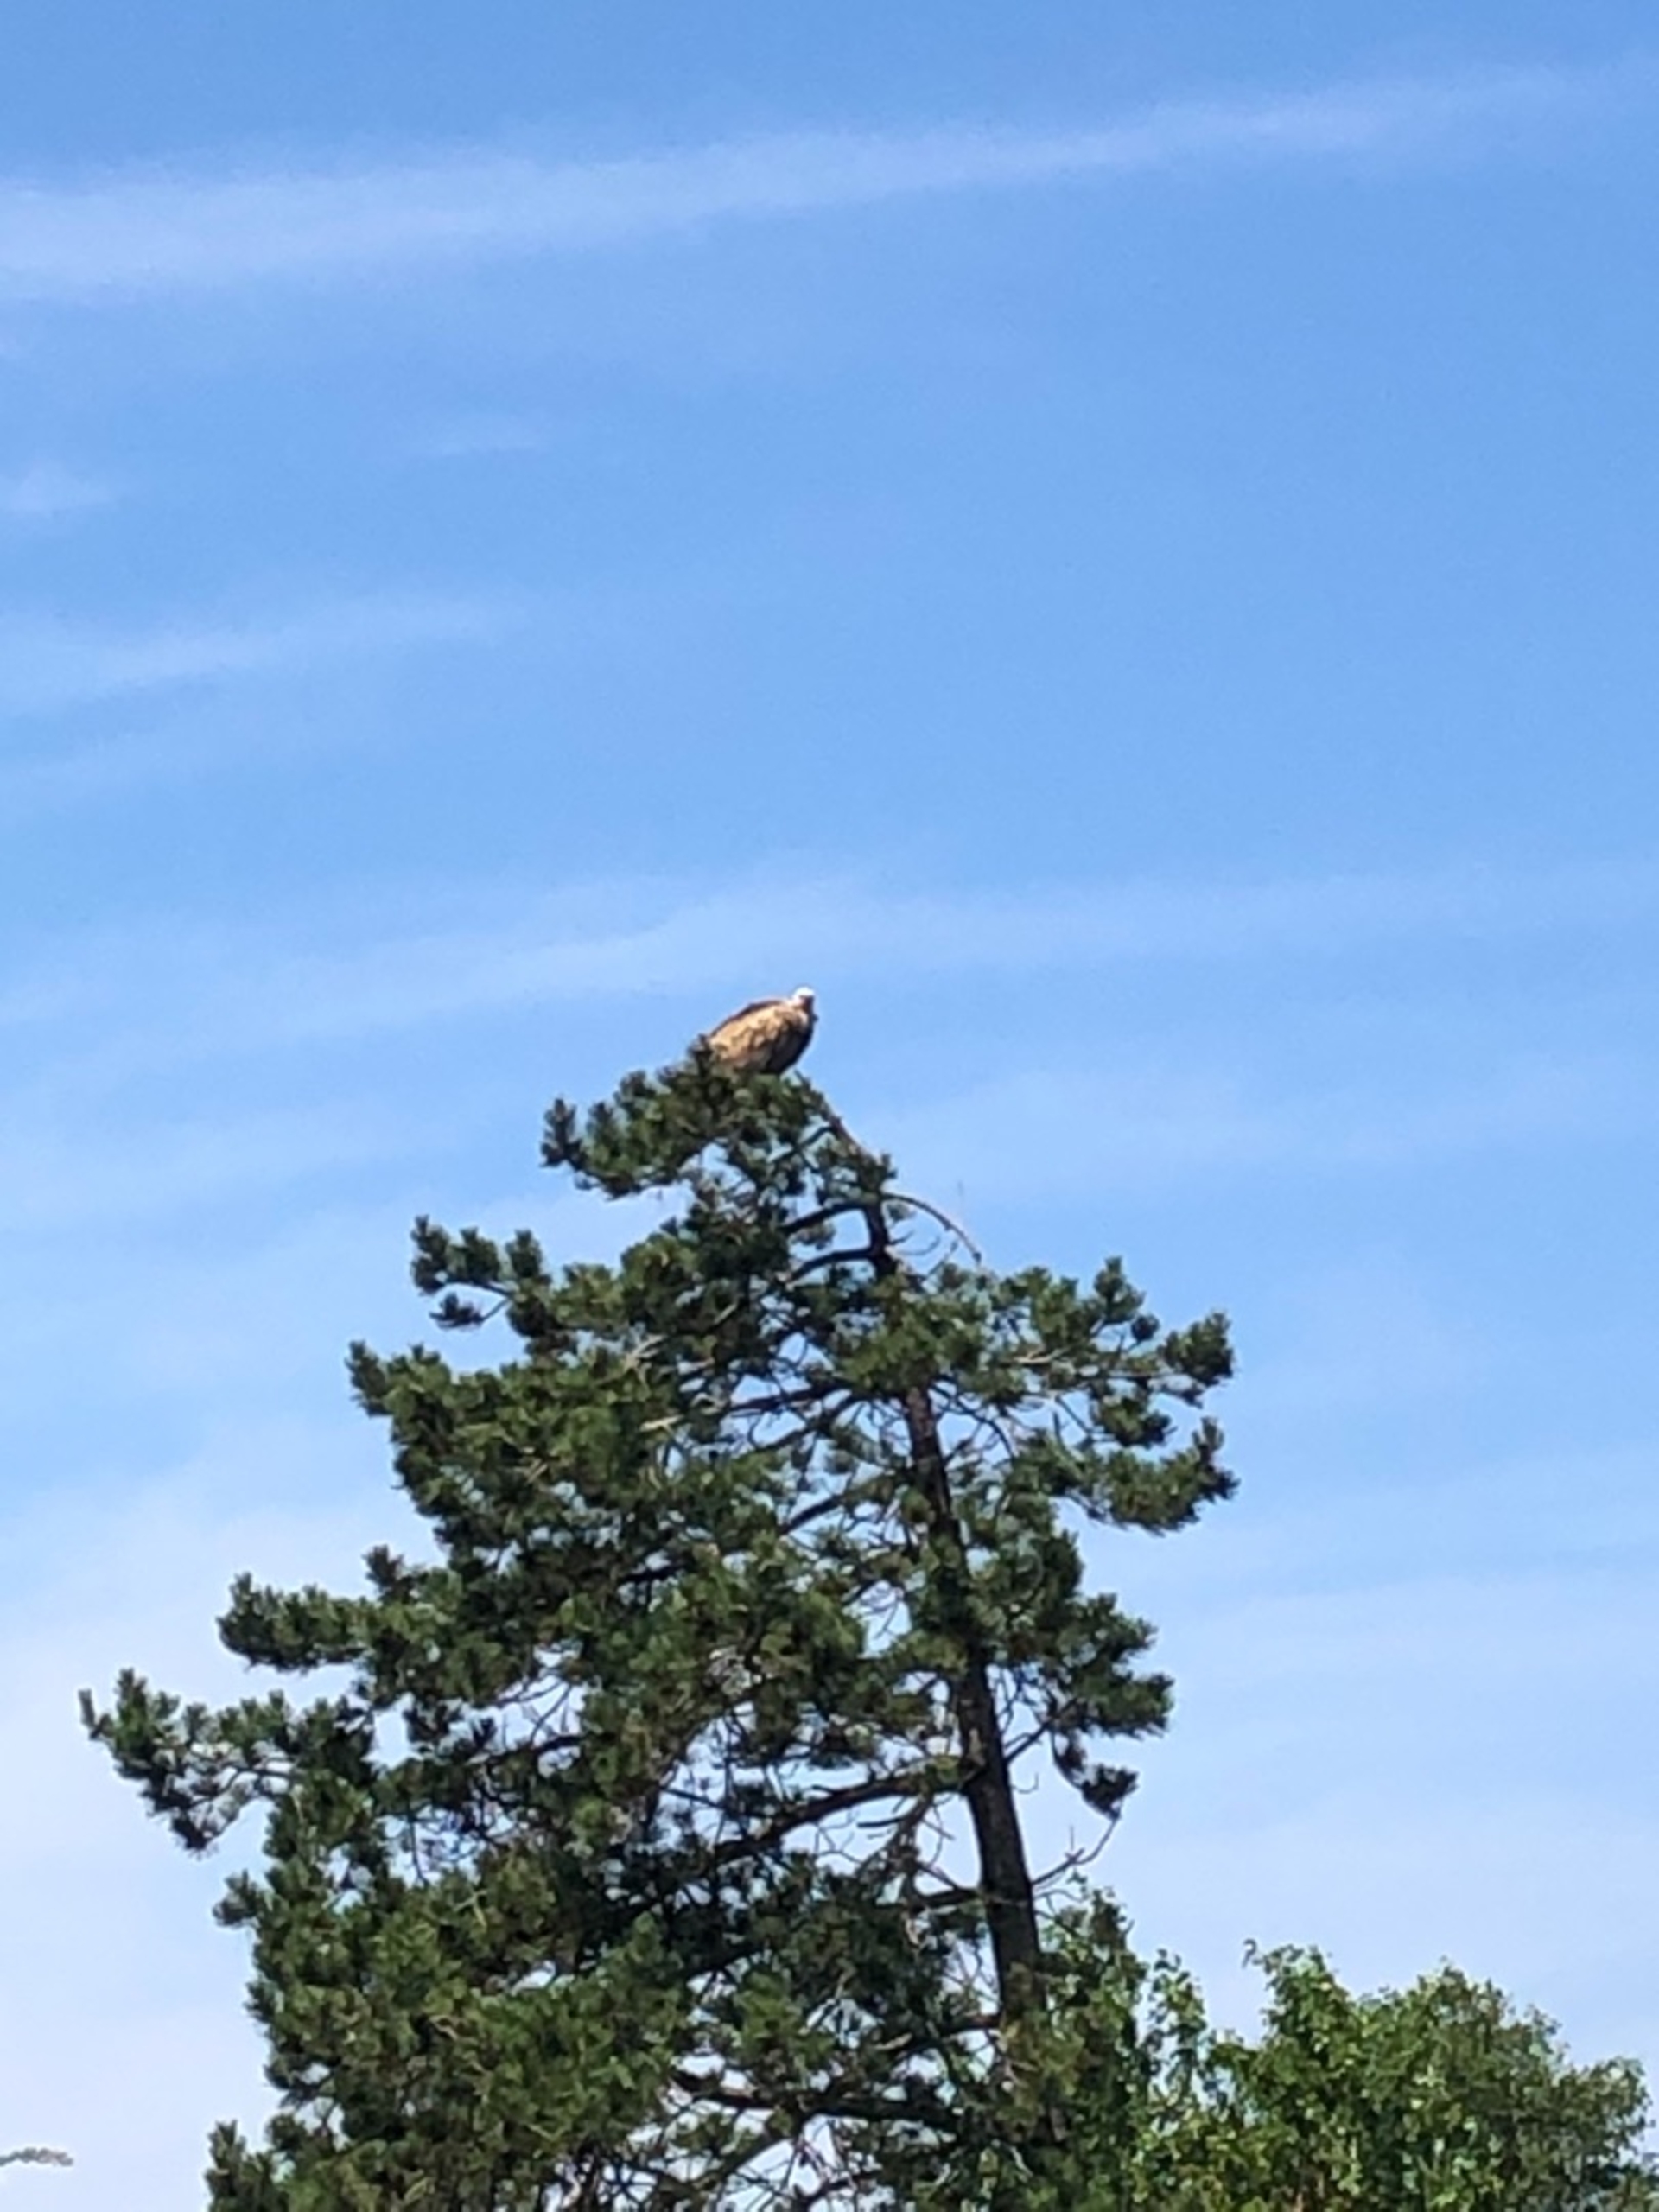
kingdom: Animalia
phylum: Chordata
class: Aves
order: Accipitriformes
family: Accipitridae
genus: Gyps
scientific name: Gyps fulvus
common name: Gåsegrib
